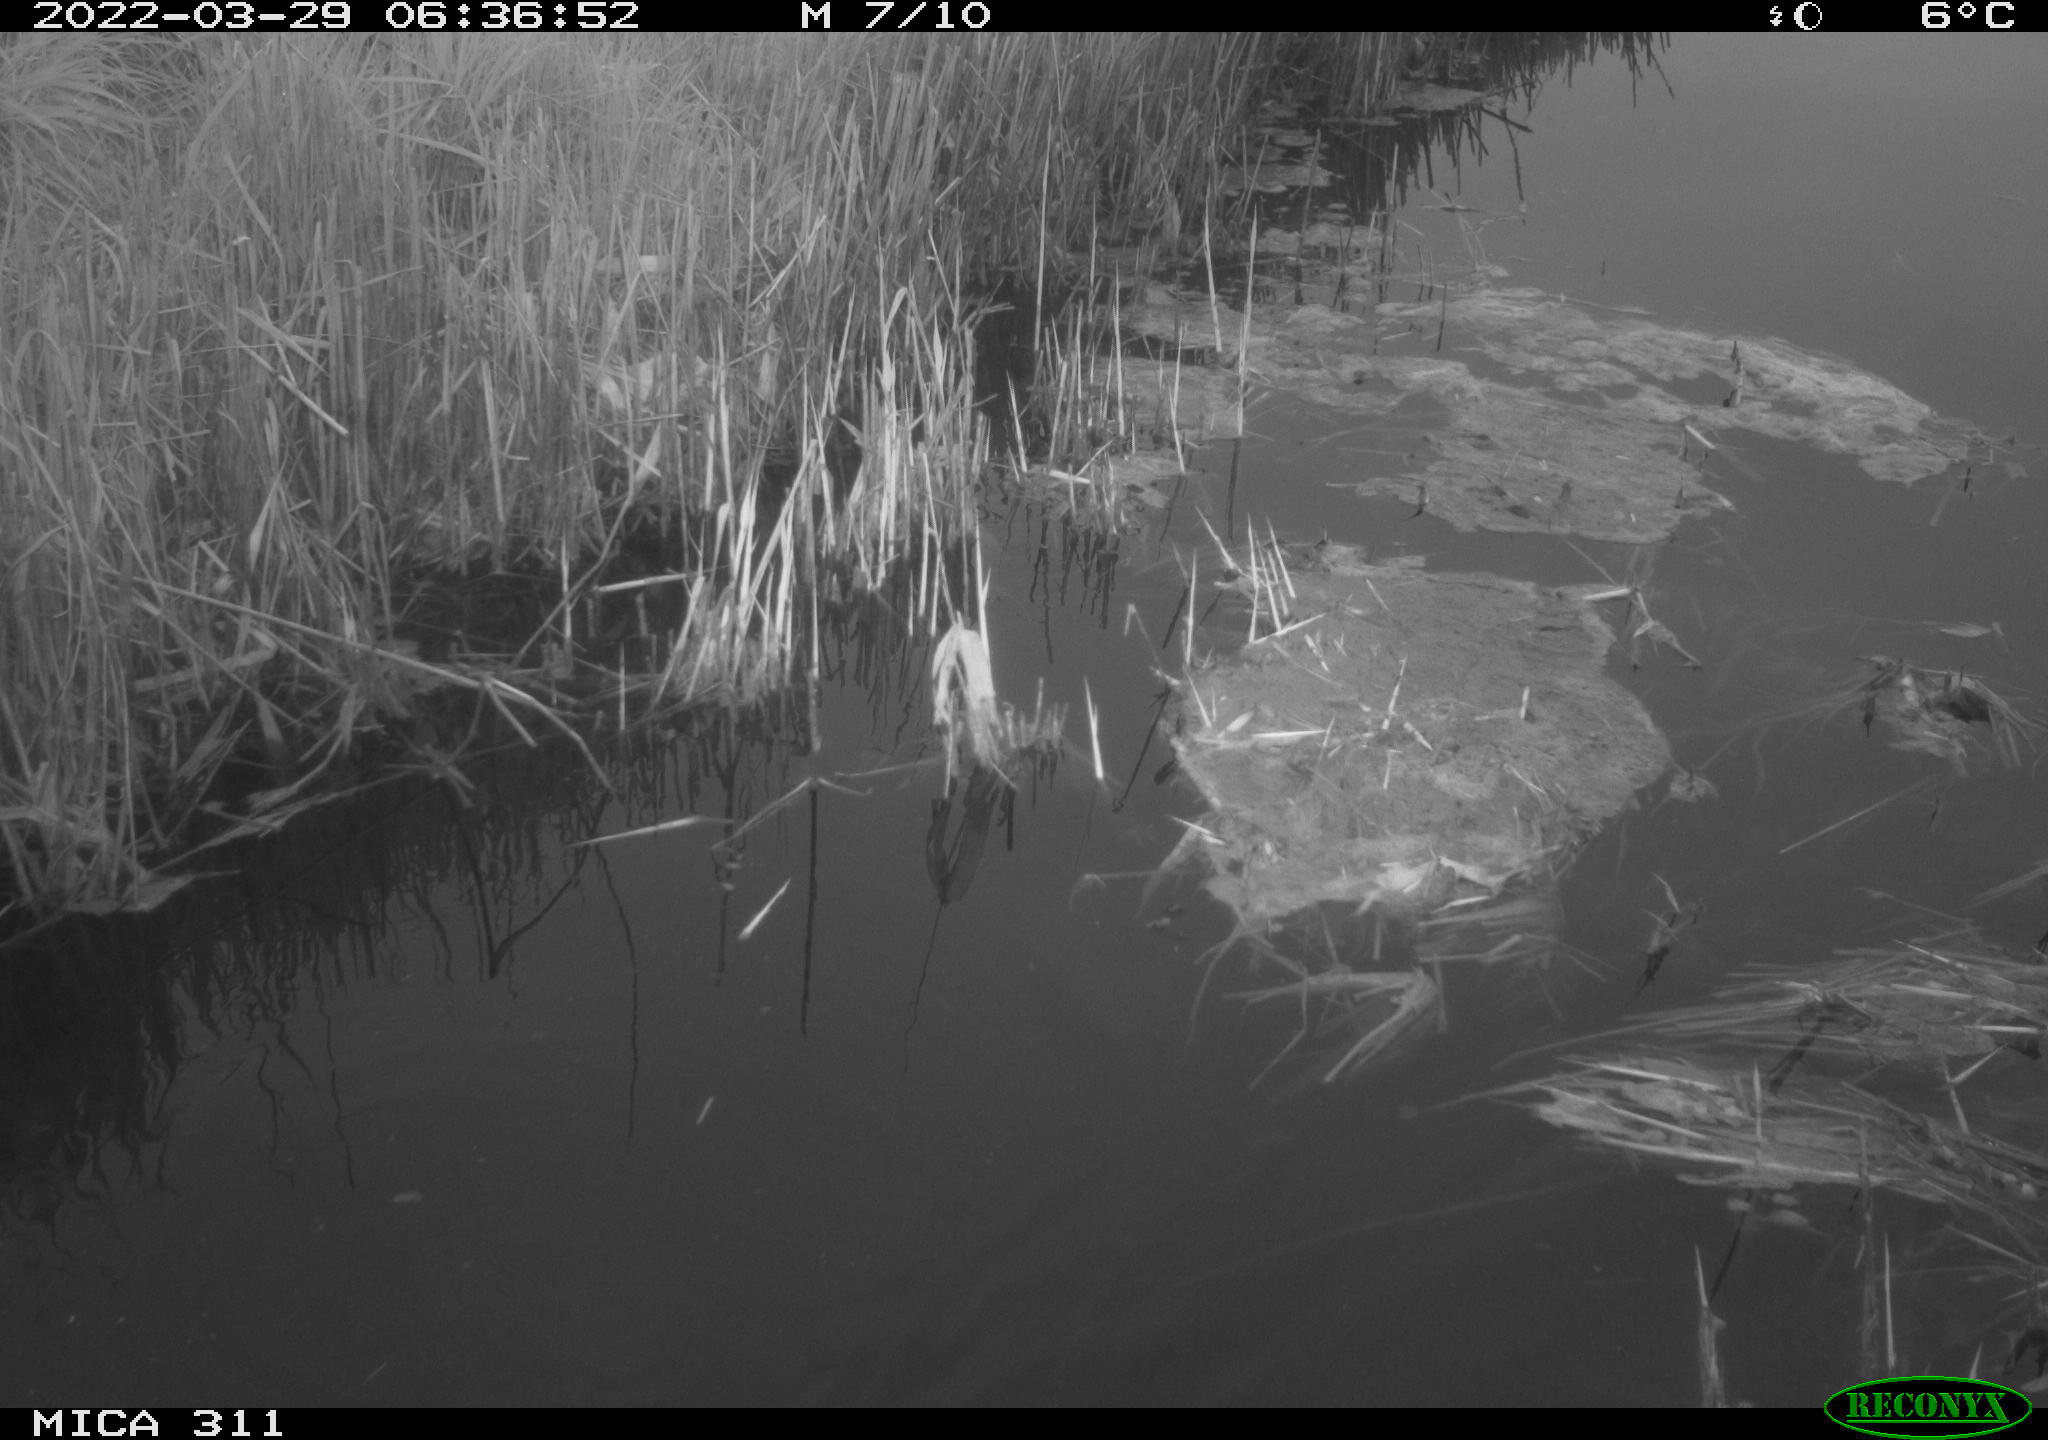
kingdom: Animalia
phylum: Chordata
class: Aves
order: Gruiformes
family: Rallidae
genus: Gallinula
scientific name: Gallinula chloropus
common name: Common moorhen
